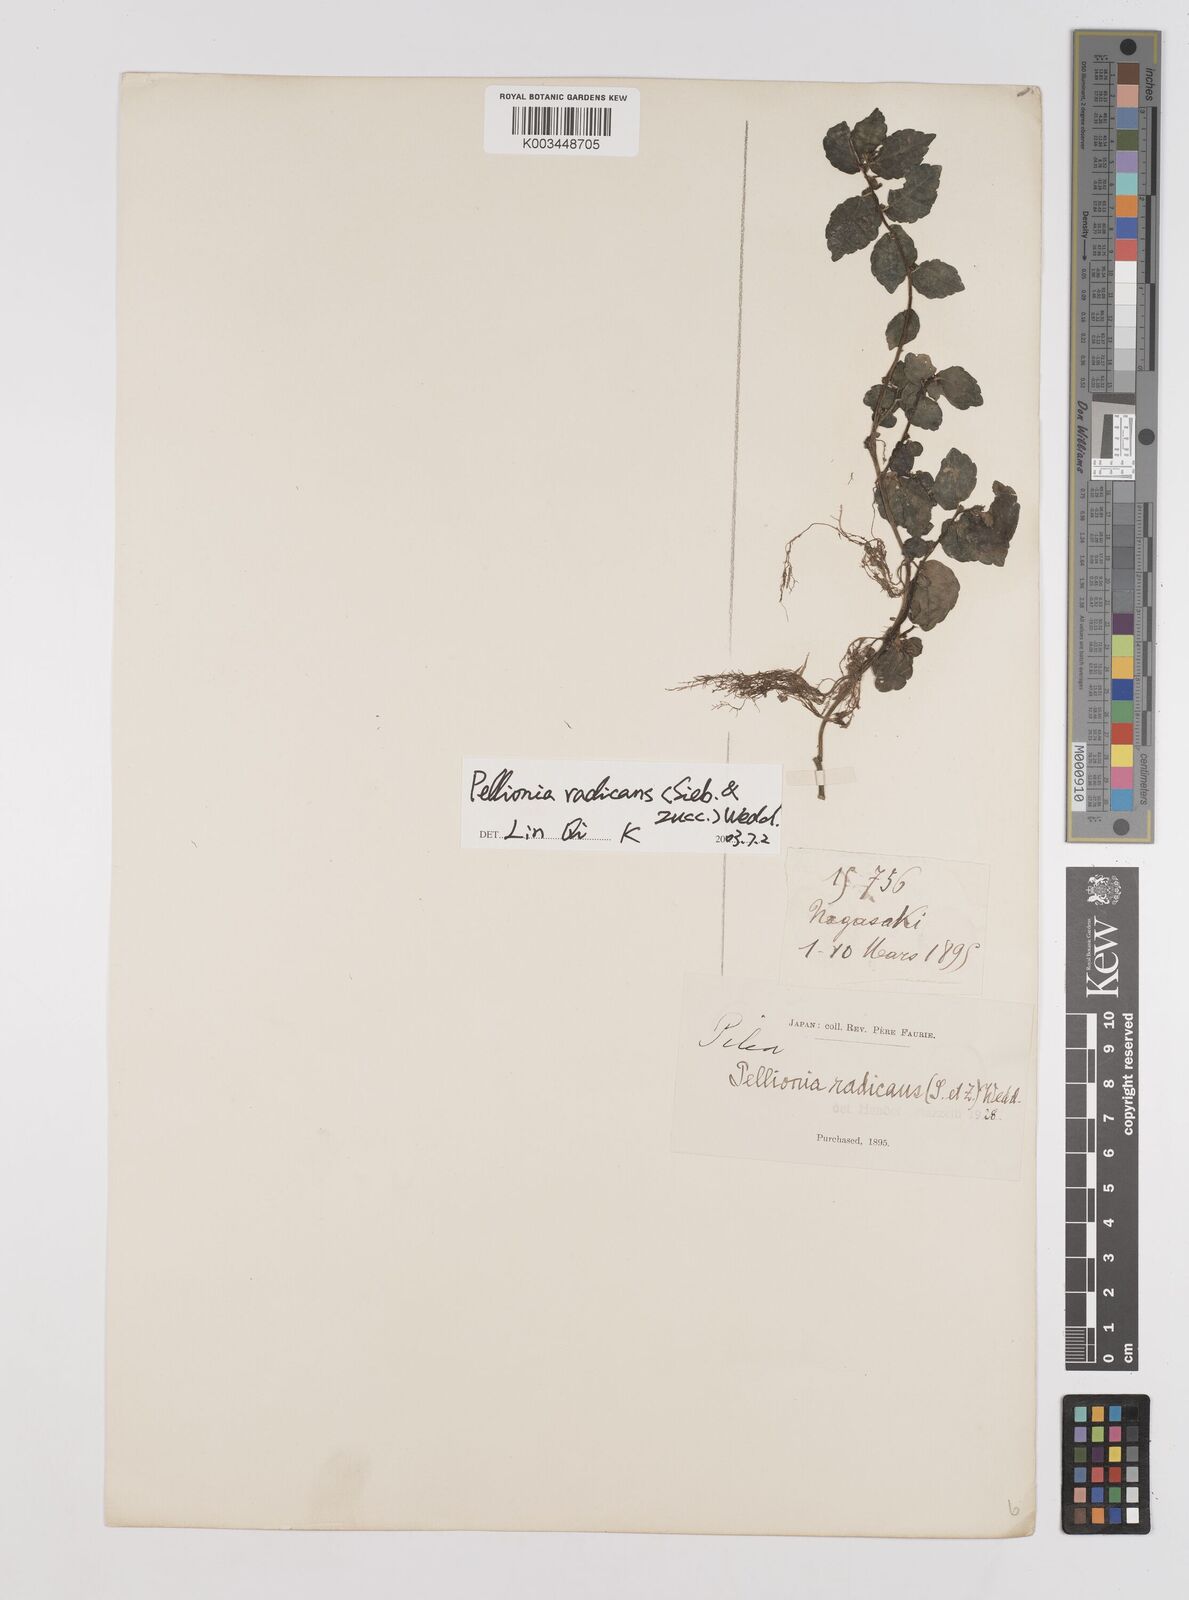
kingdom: Plantae
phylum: Tracheophyta
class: Magnoliopsida
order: Rosales
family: Urticaceae
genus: Elatostema
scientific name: Elatostema radicans
